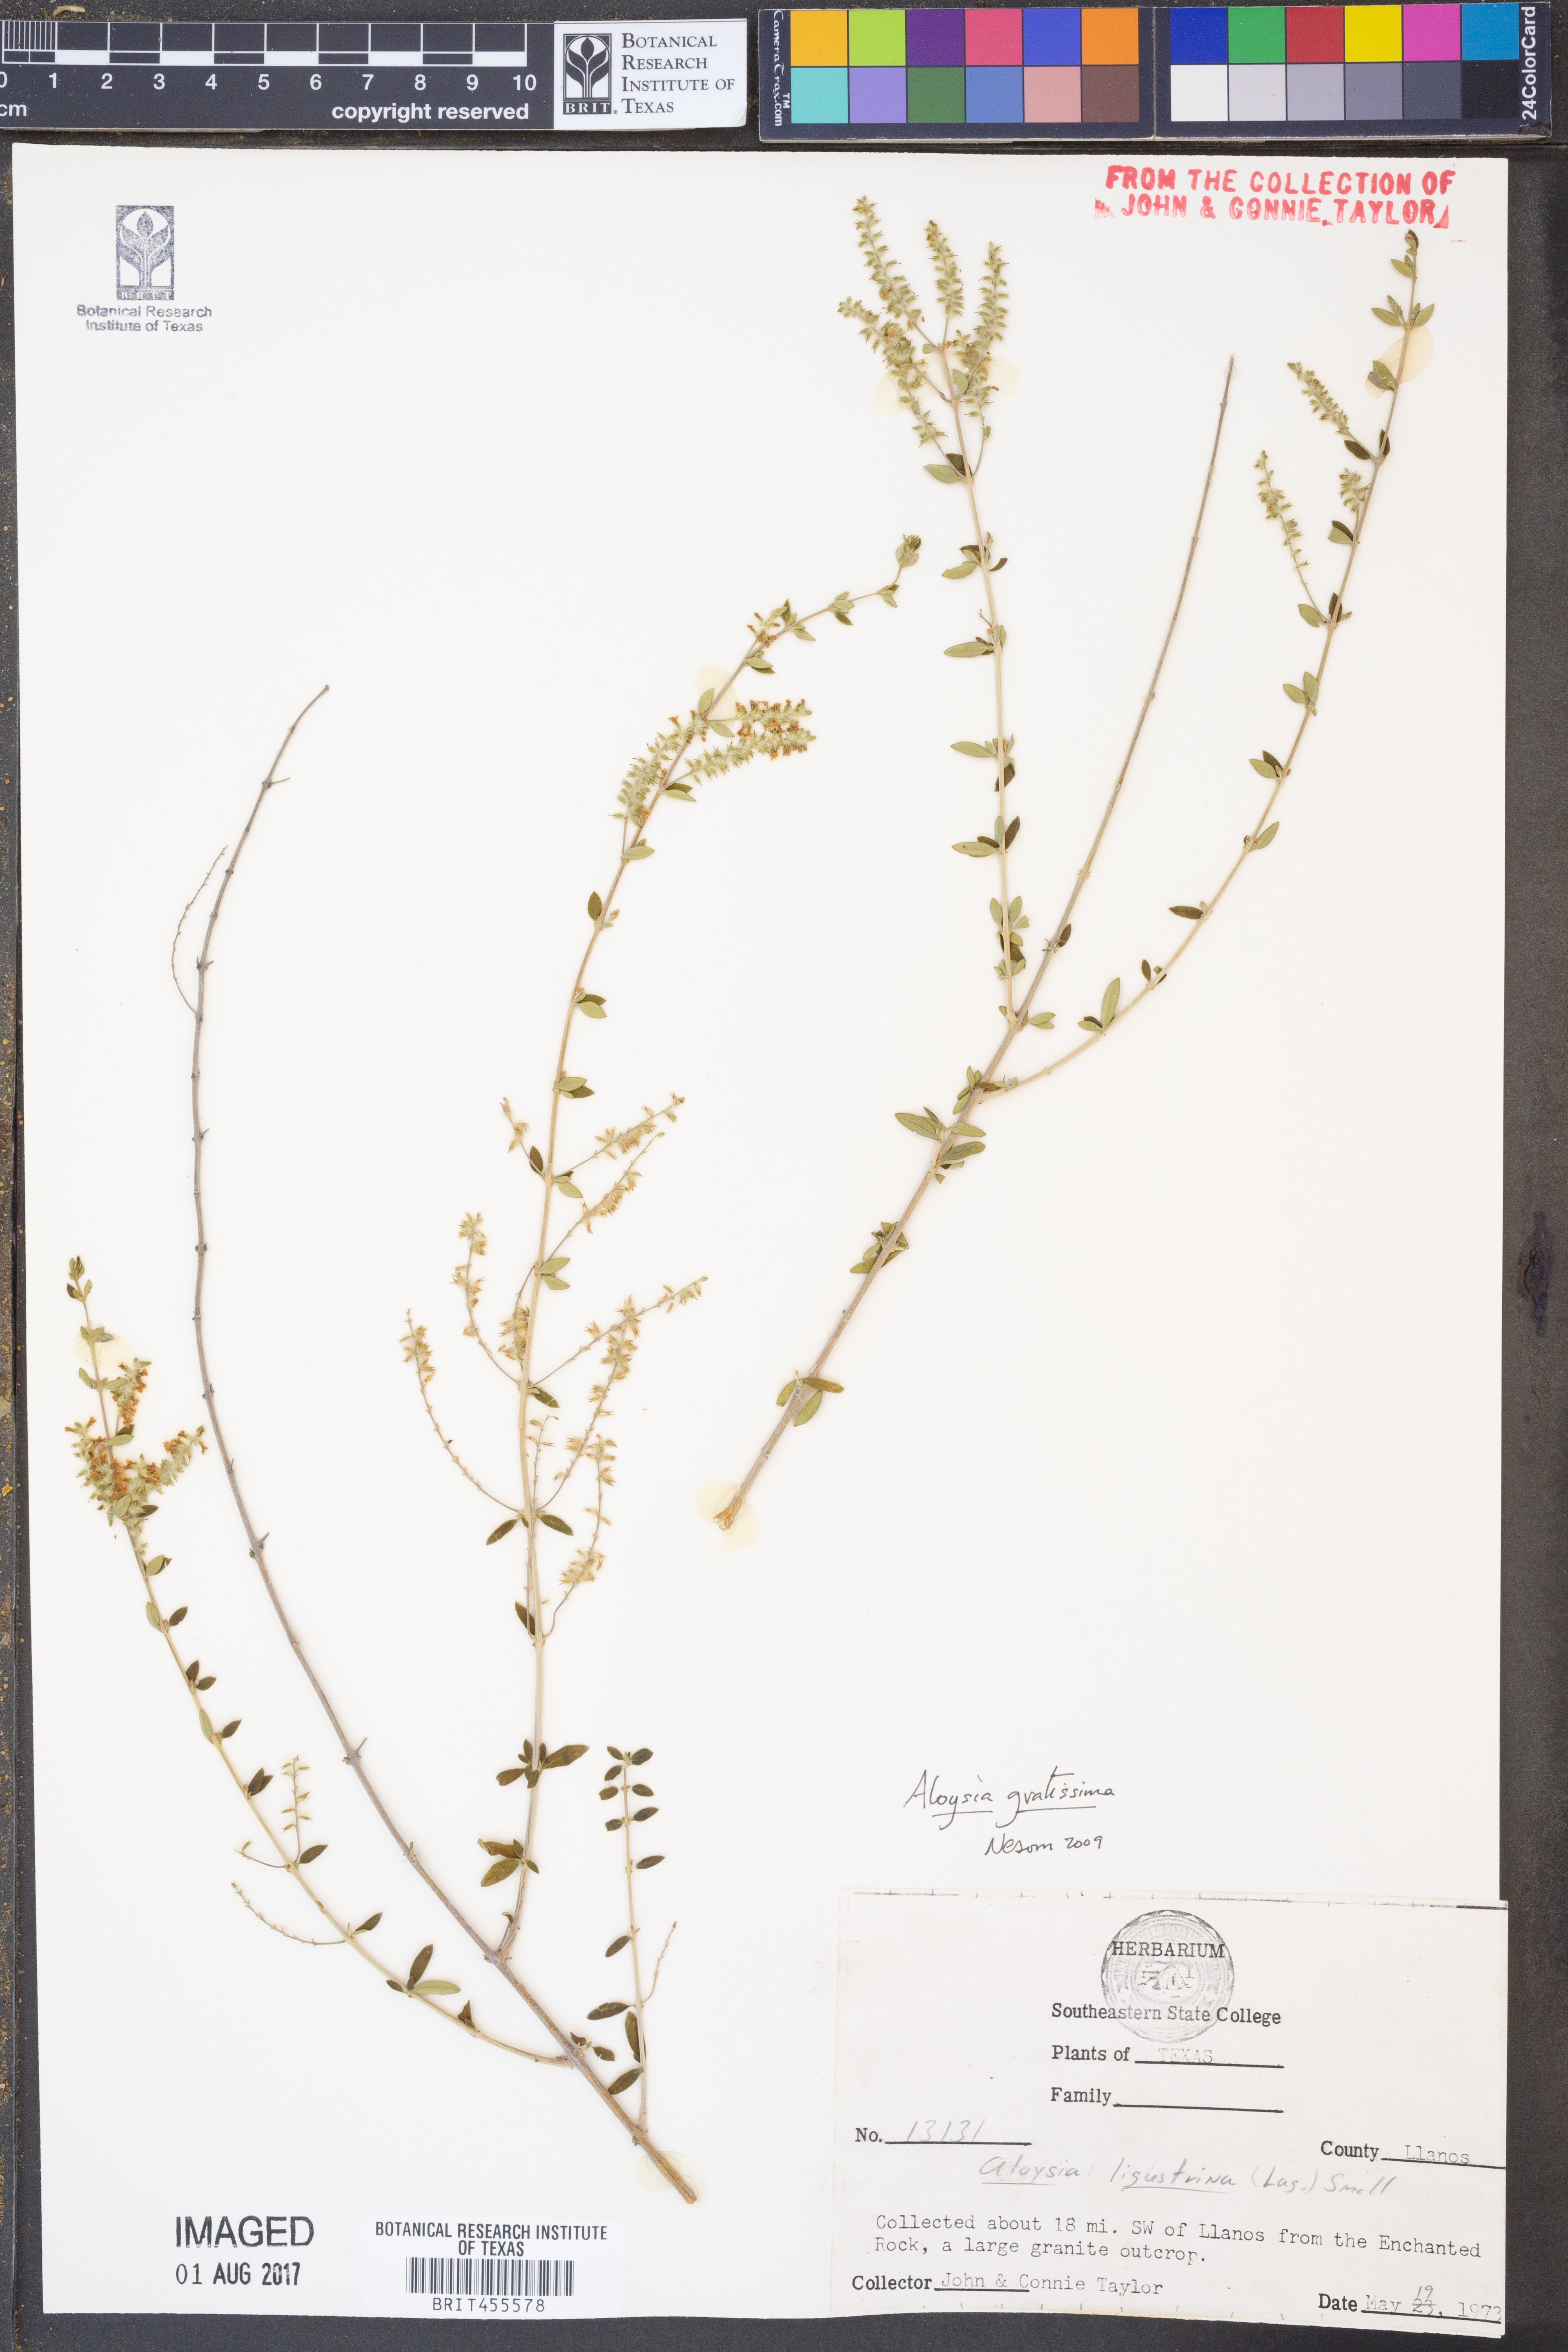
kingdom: Plantae
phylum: Tracheophyta
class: Magnoliopsida
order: Lamiales
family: Verbenaceae
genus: Aloysia
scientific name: Aloysia gratissima
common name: Common bee-brush
